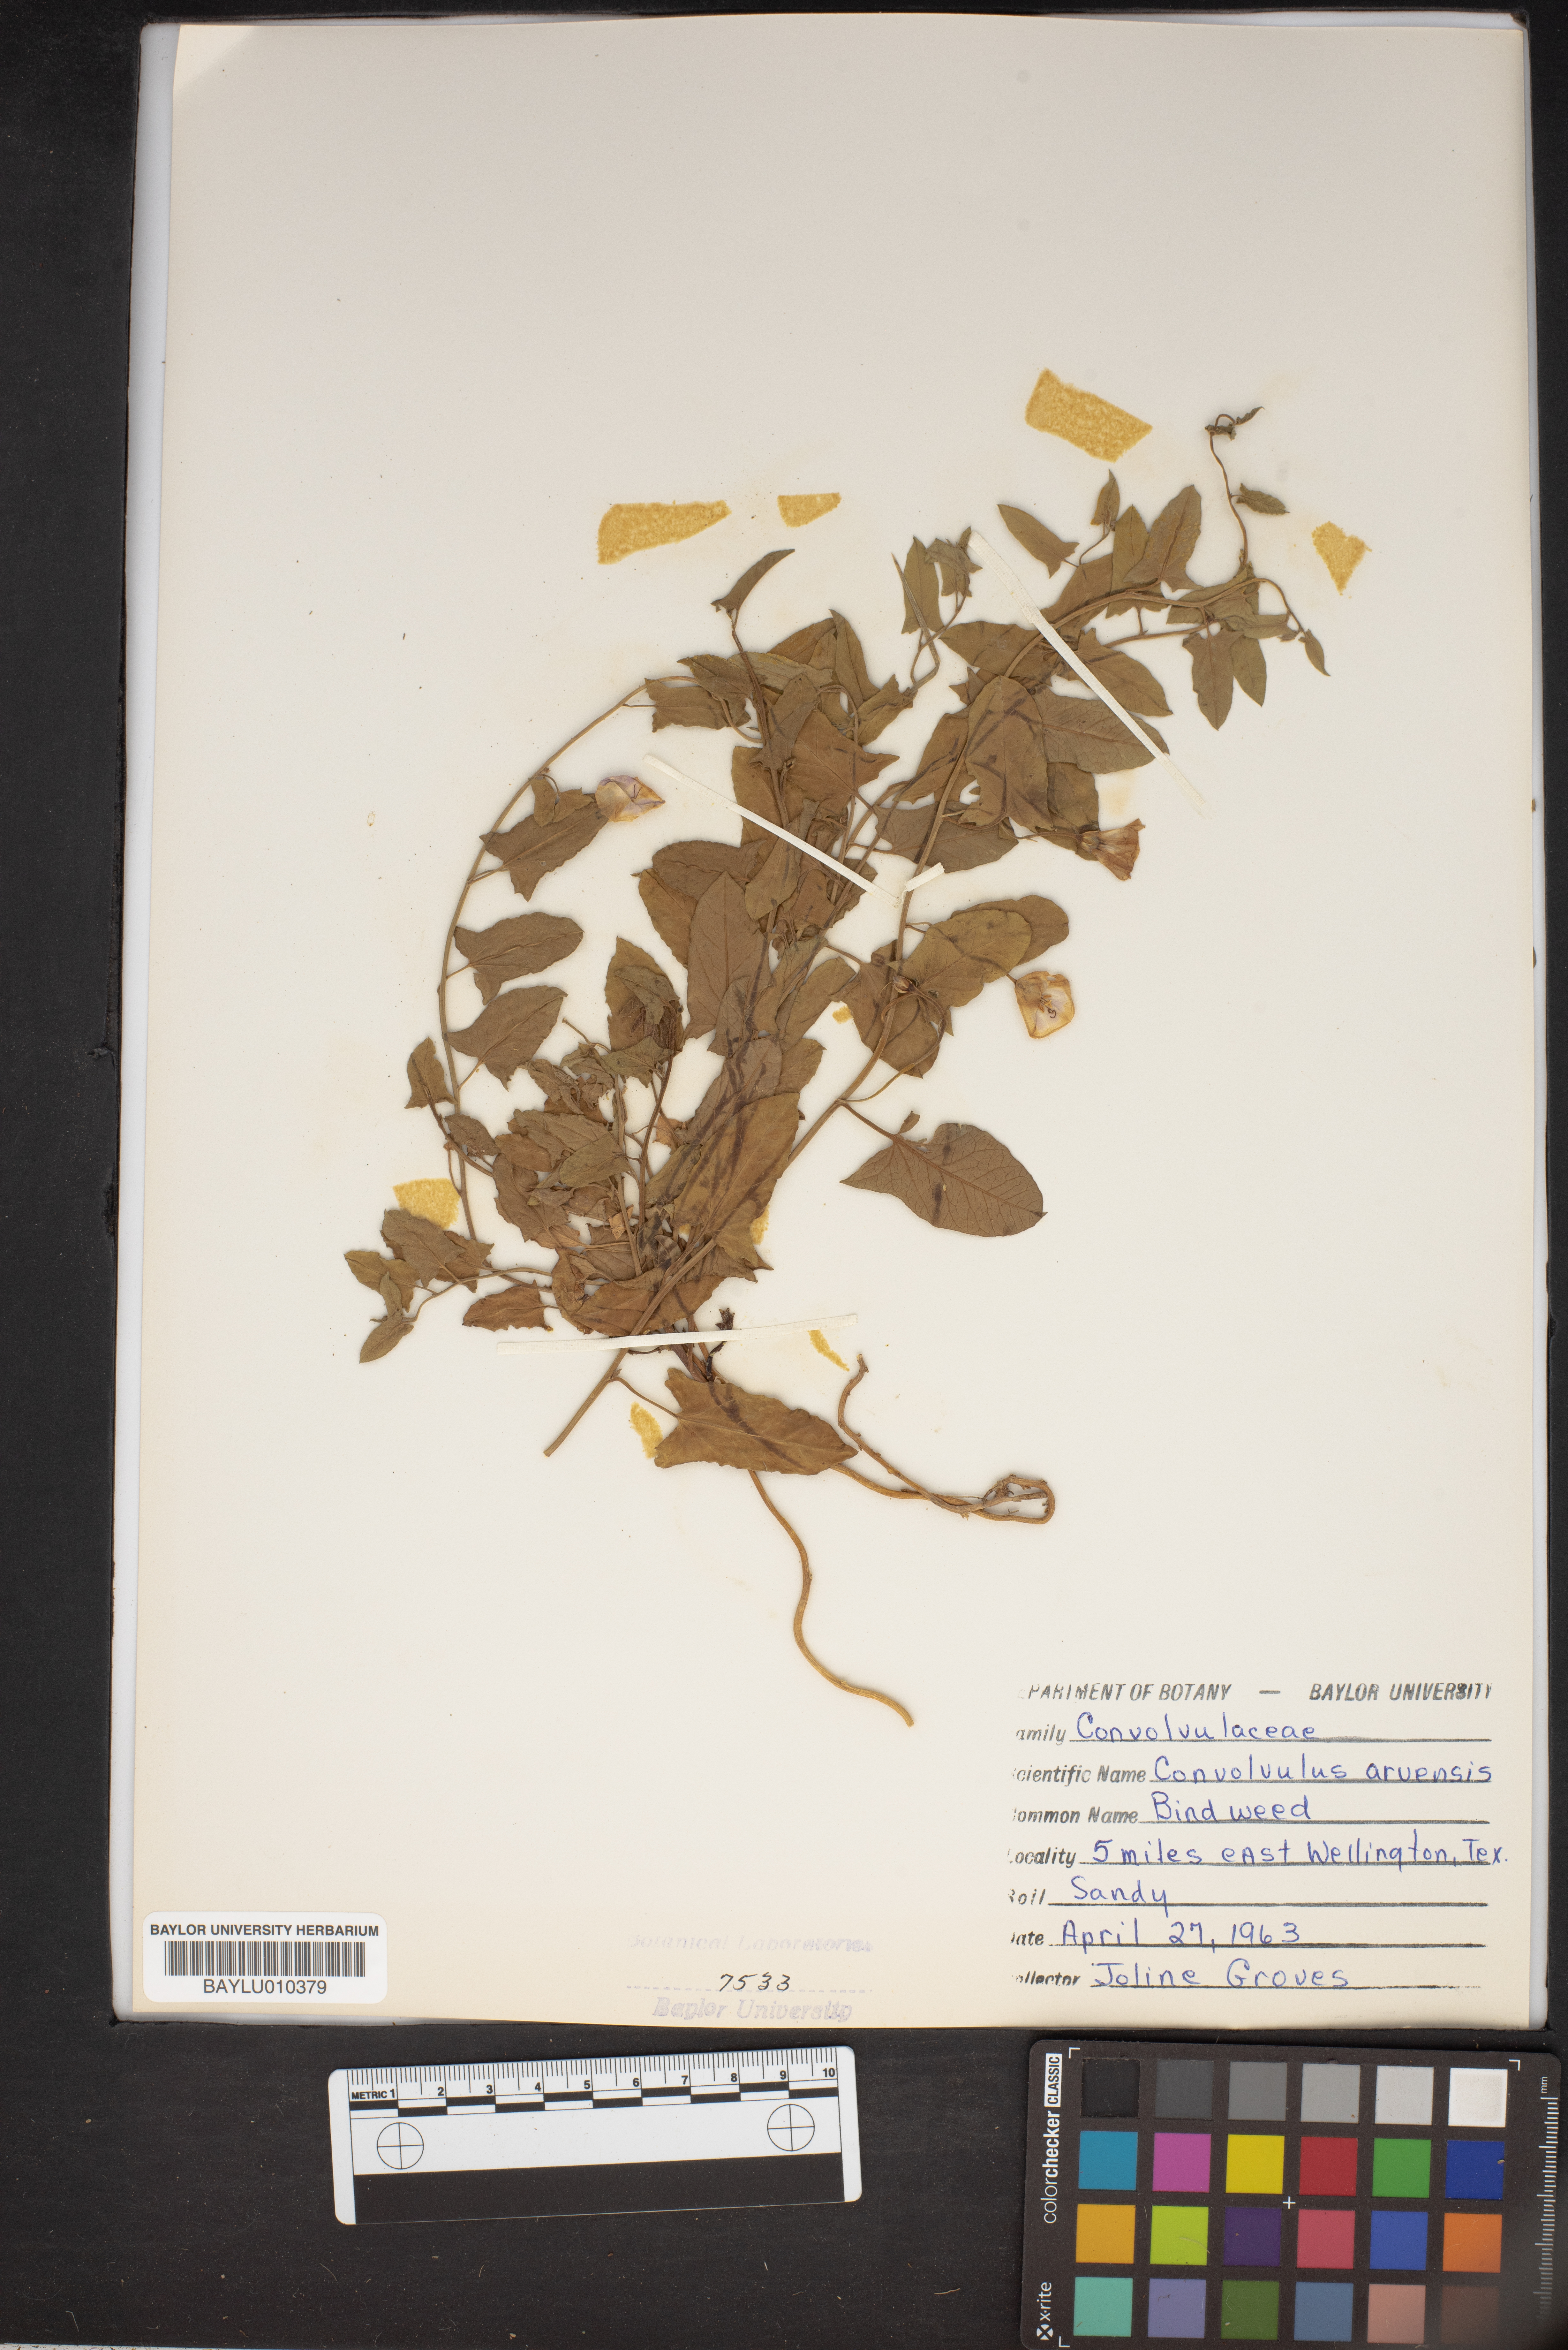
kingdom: Plantae
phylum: Tracheophyta
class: Magnoliopsida
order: Solanales
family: Convolvulaceae
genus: Convolvulus
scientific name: Convolvulus arvensis
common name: Field bindweed
